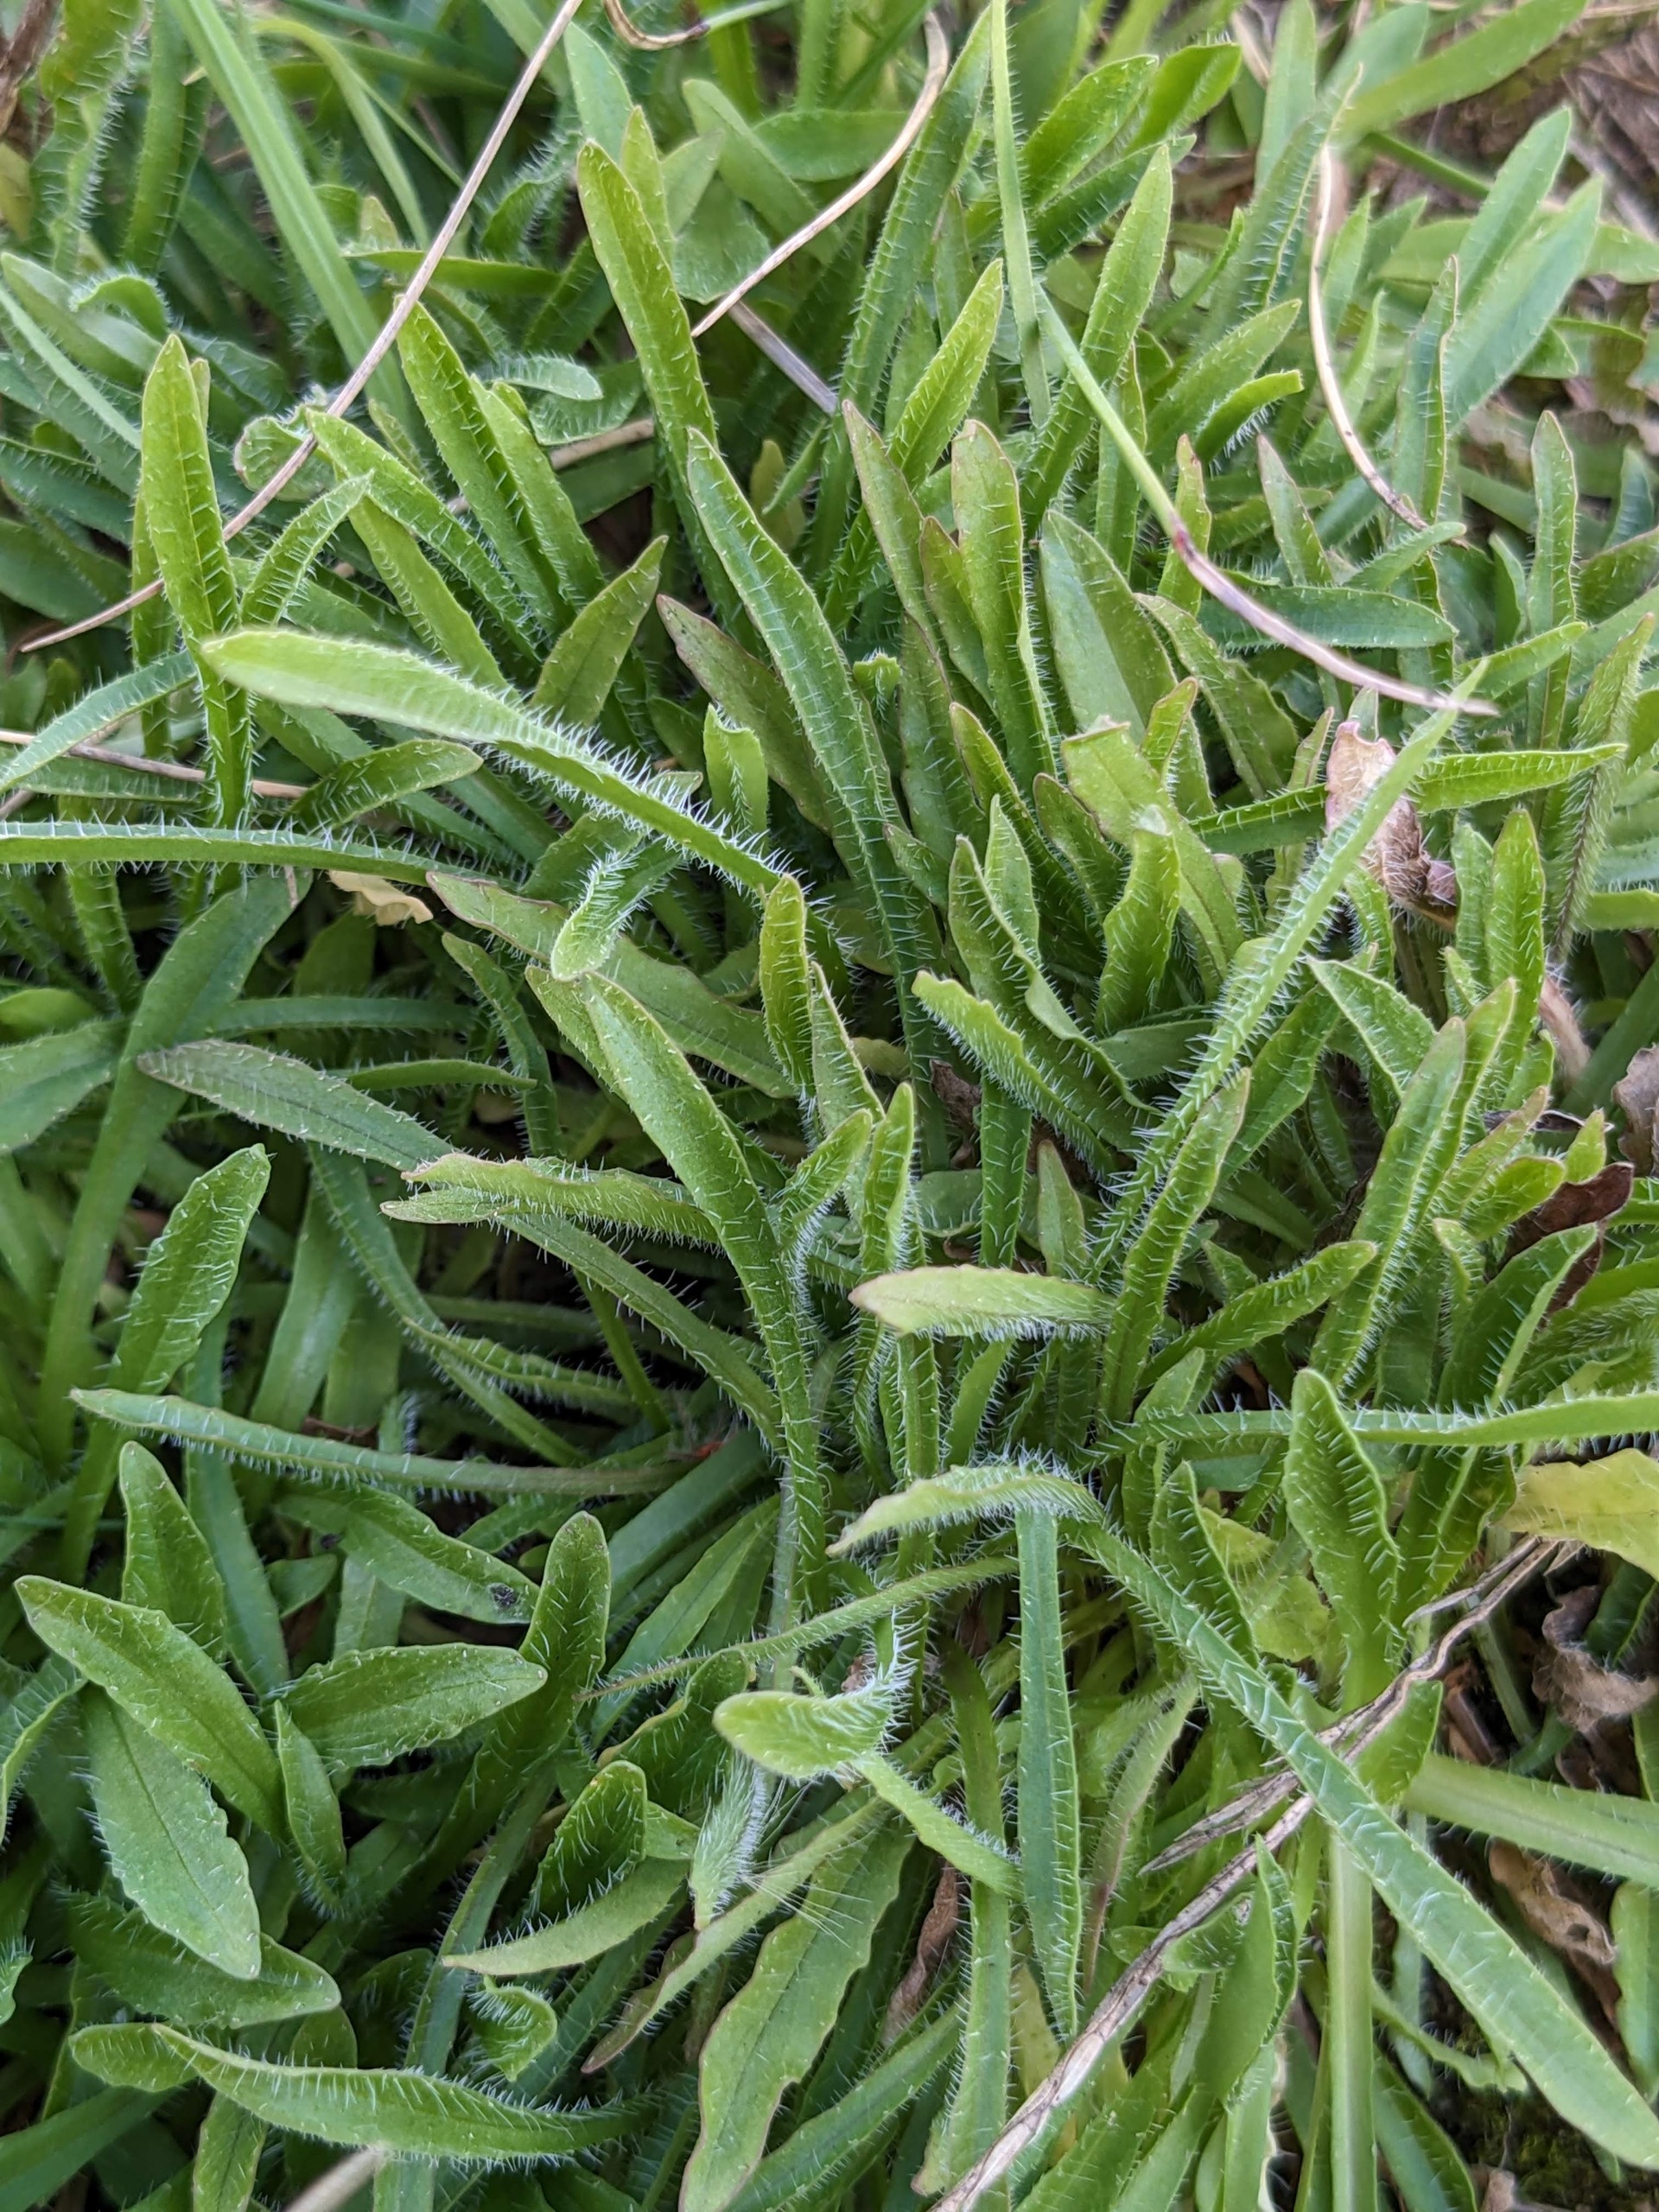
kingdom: Plantae
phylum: Tracheophyta
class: Magnoliopsida
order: Asterales
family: Campanulaceae
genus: Jasione
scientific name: Jasione montana
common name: Blåmunke
